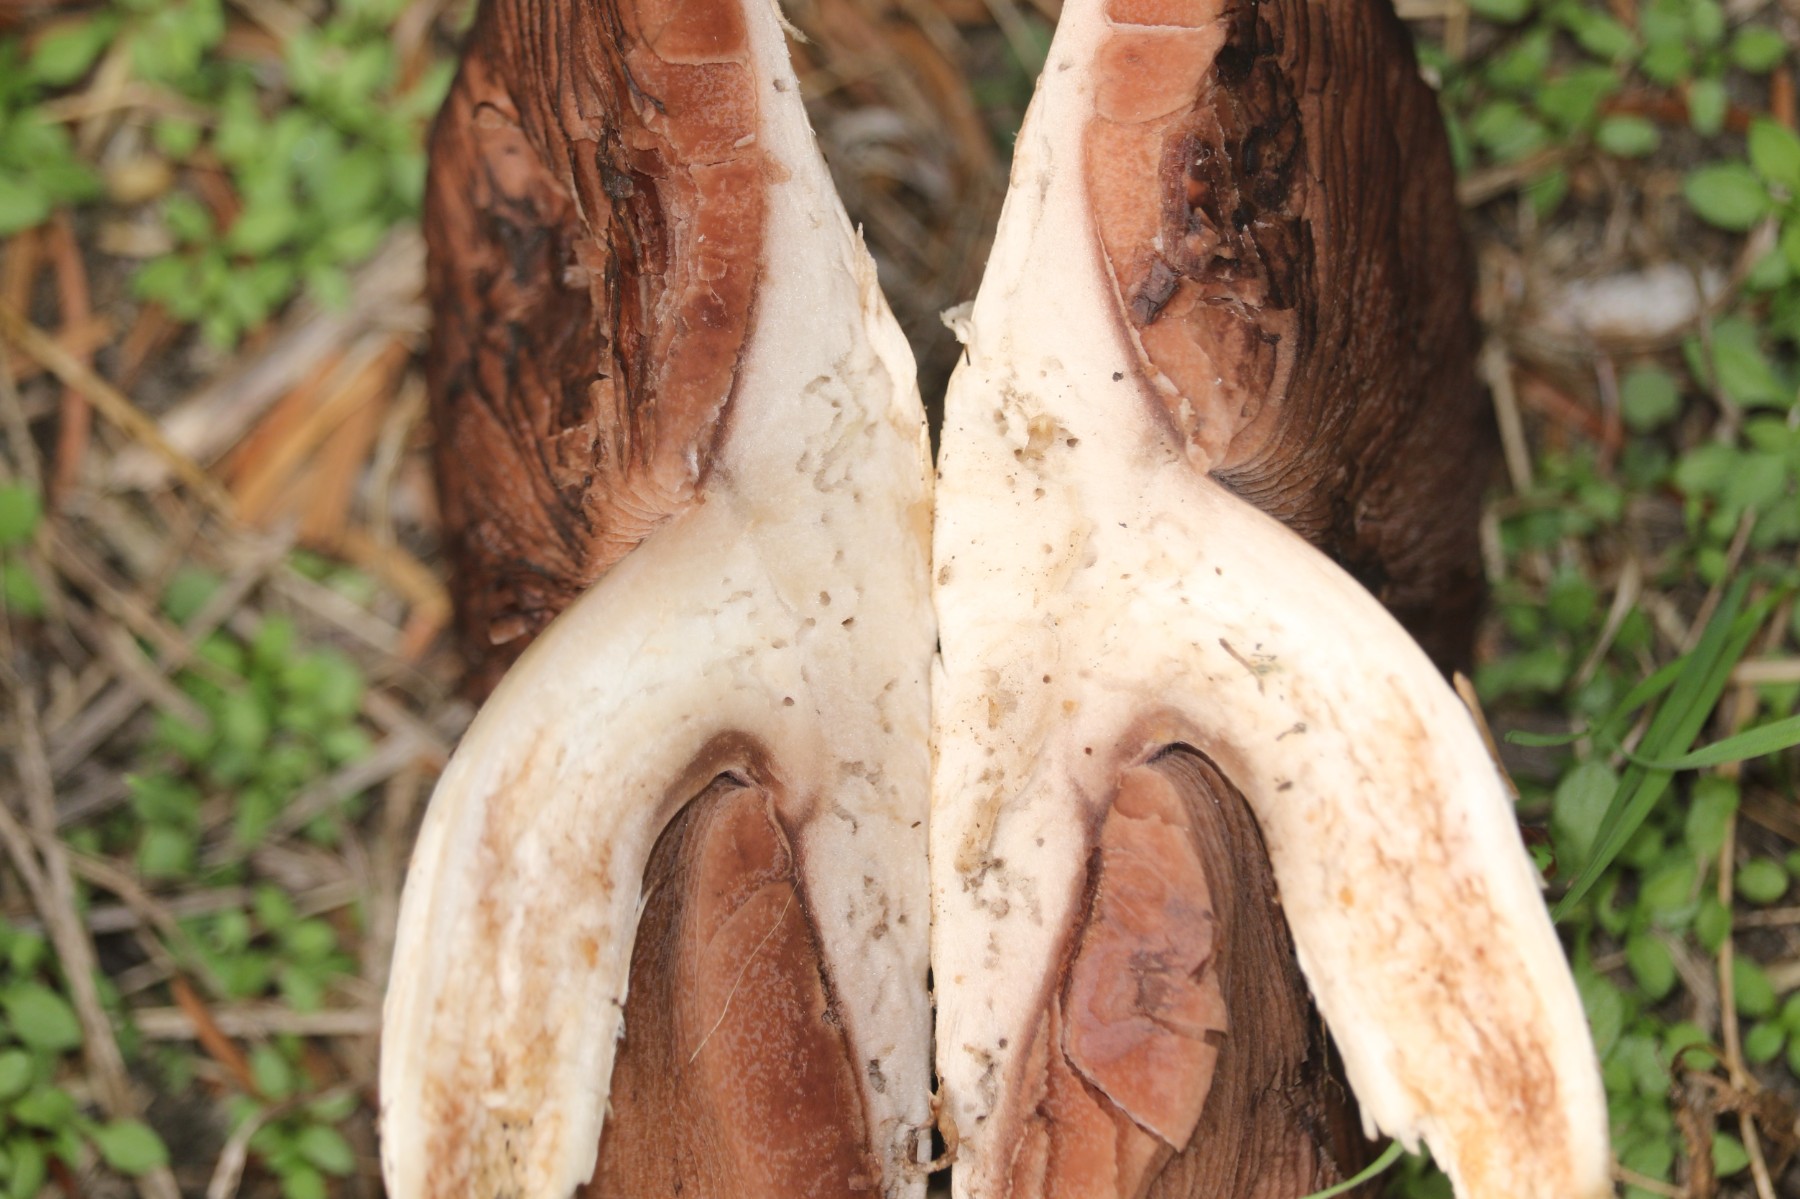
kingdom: Fungi
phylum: Basidiomycota
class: Agaricomycetes
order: Agaricales
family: Agaricaceae
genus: Agaricus
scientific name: Agaricus
